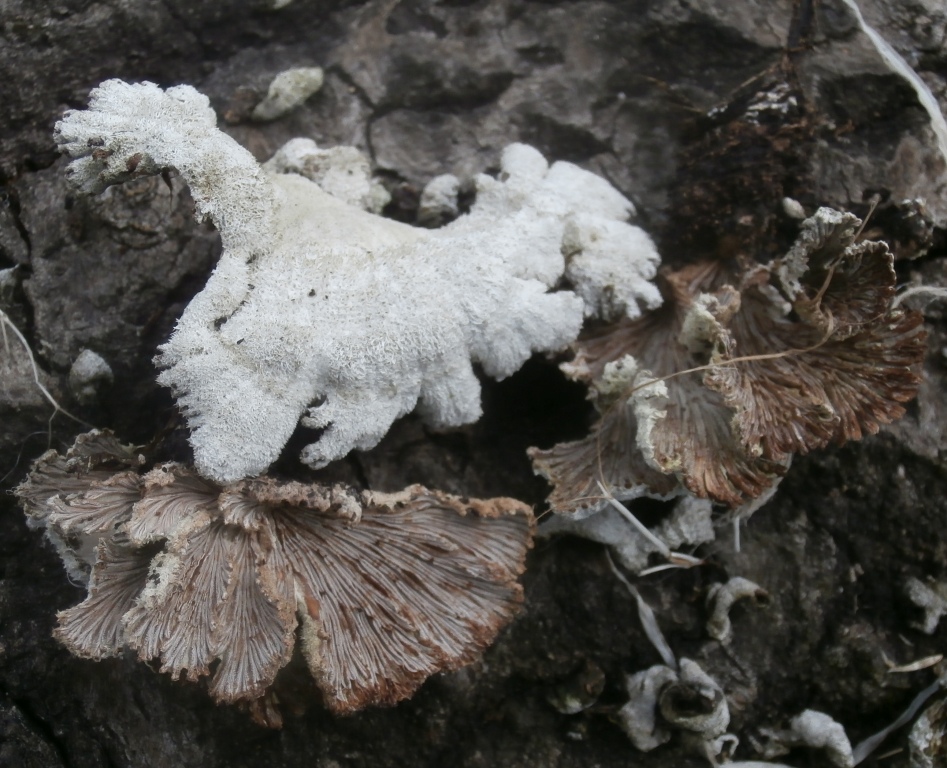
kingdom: Fungi
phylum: Basidiomycota
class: Agaricomycetes
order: Agaricales
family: Schizophyllaceae
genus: Schizophyllum
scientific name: Schizophyllum commune
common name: kløvblad
